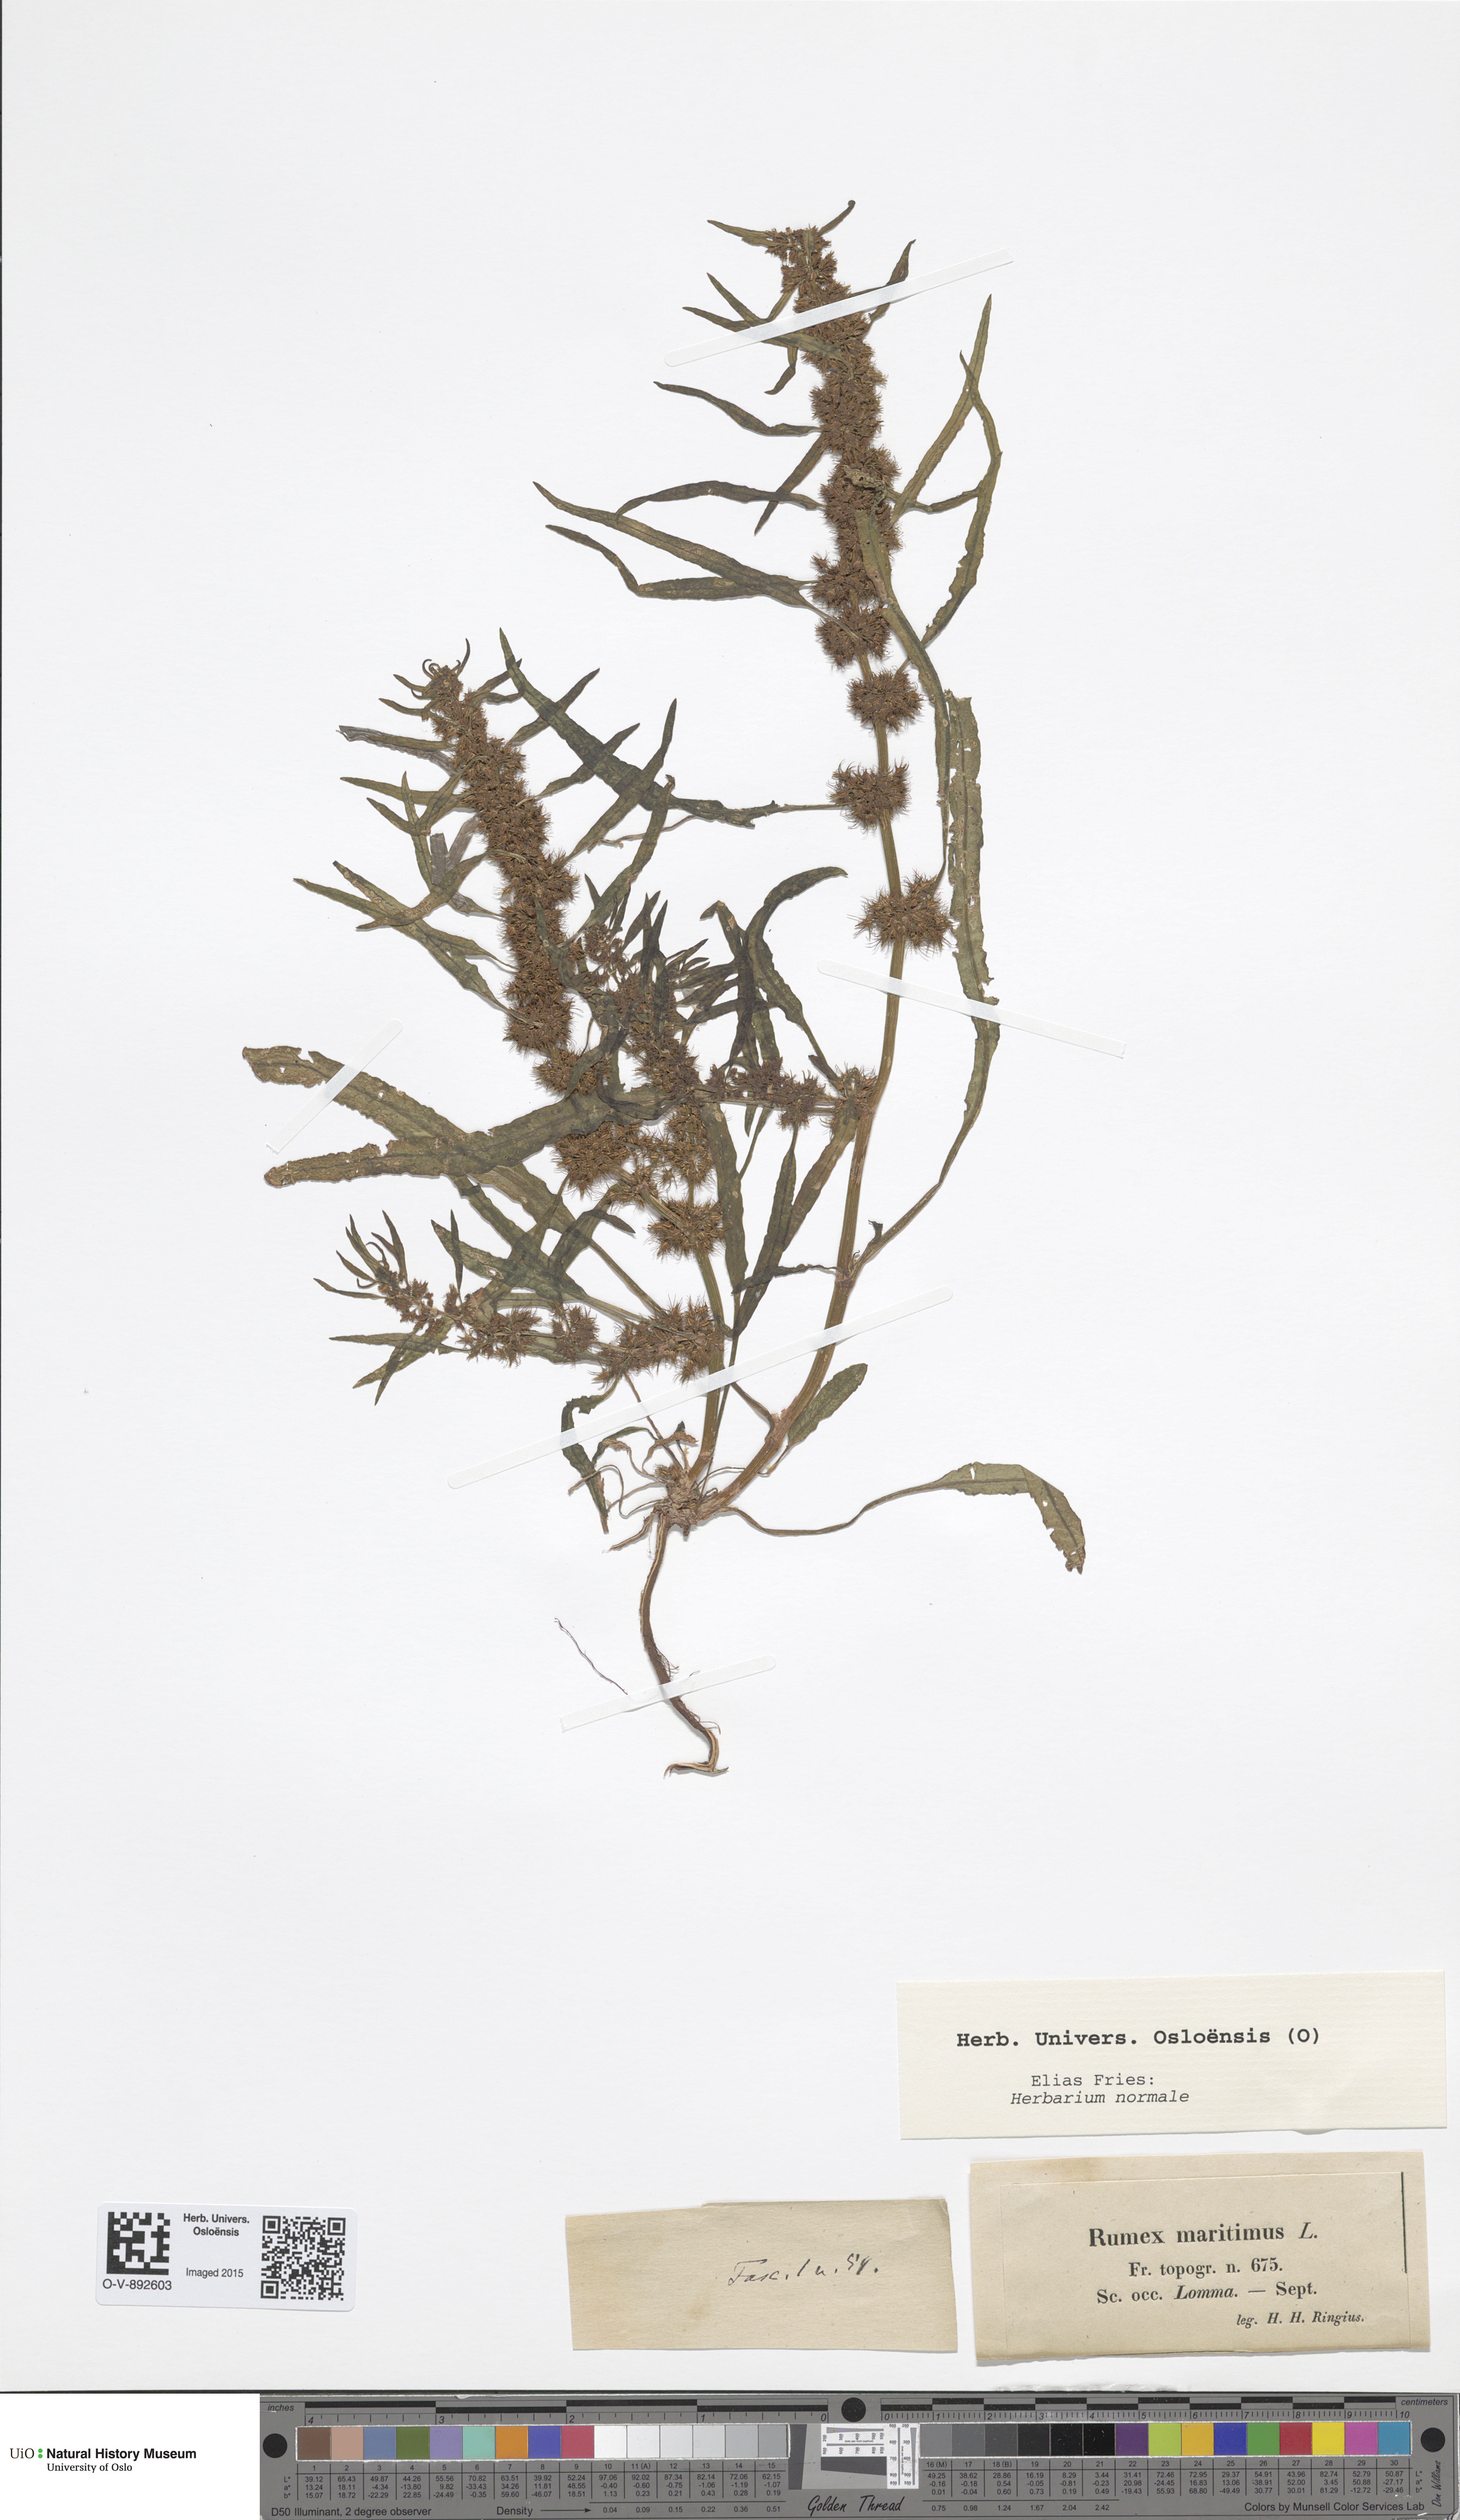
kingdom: Plantae
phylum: Tracheophyta
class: Magnoliopsida
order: Caryophyllales
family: Polygonaceae
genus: Rumex
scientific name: Rumex maritimus
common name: Golden dock
